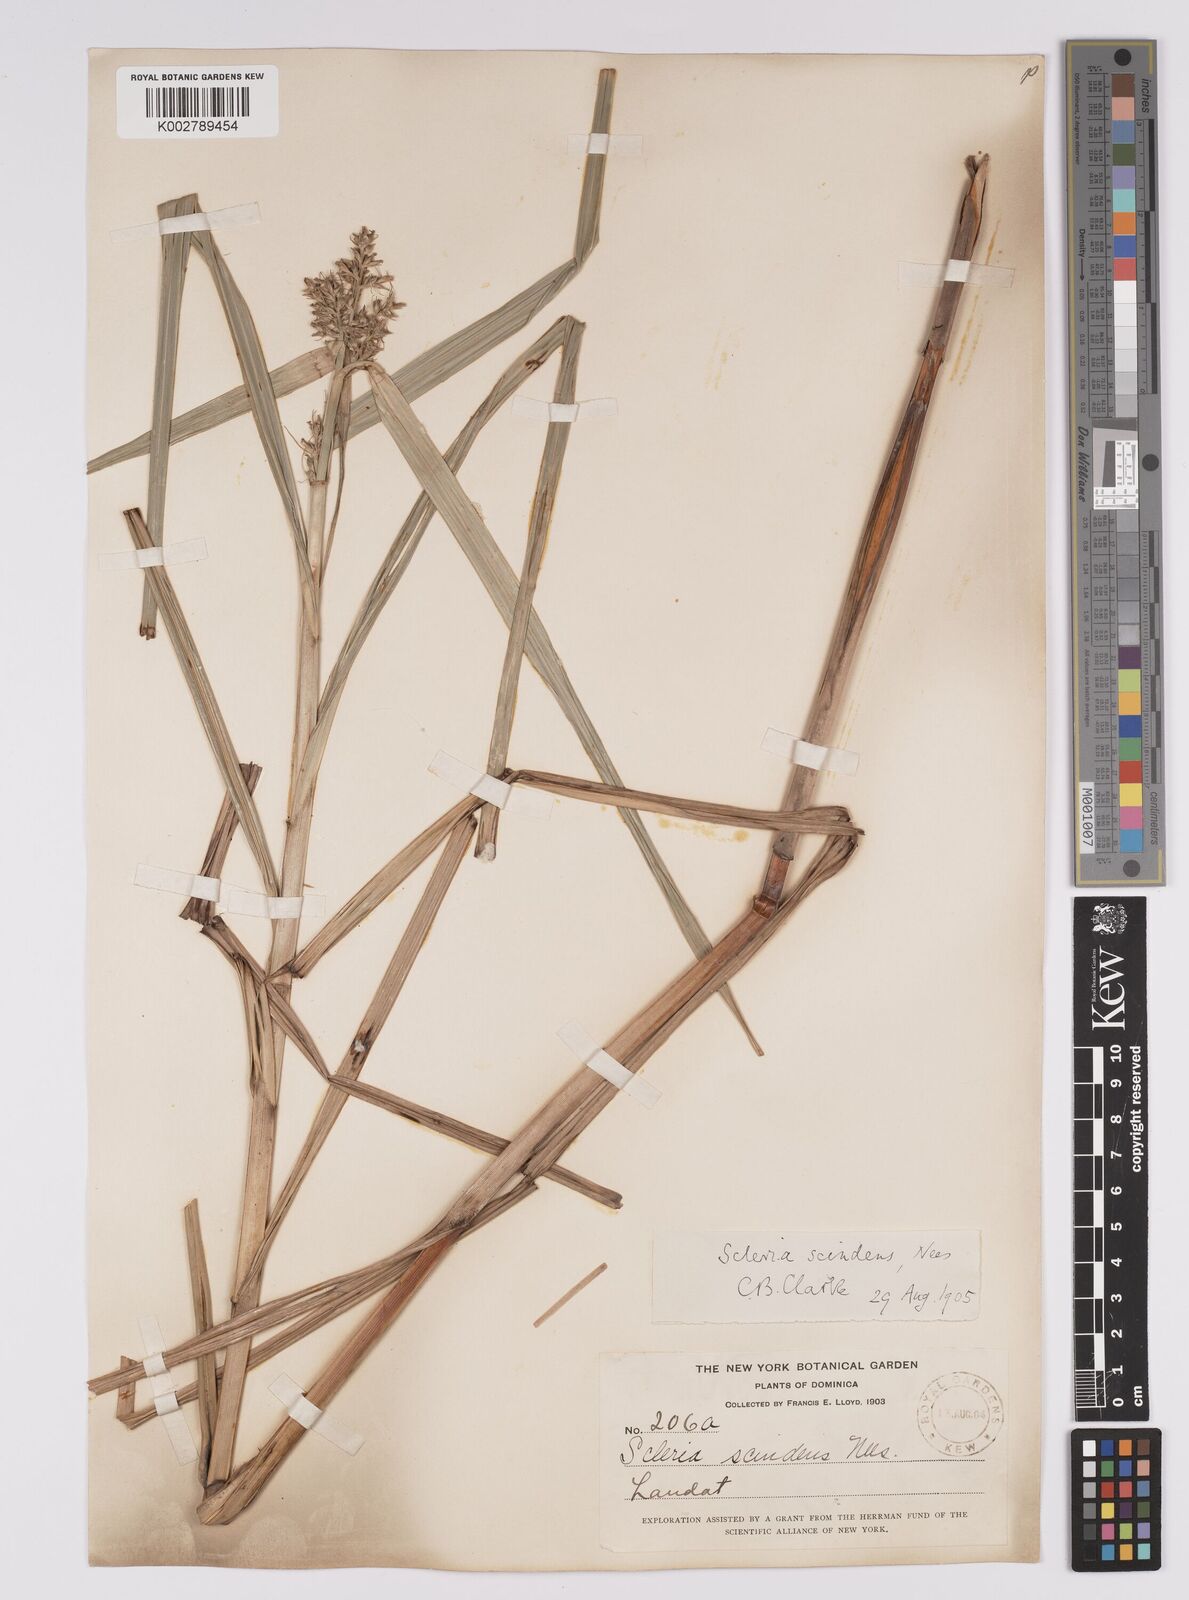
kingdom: Plantae
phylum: Tracheophyta
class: Liliopsida
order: Poales
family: Cyperaceae
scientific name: Cyperaceae
